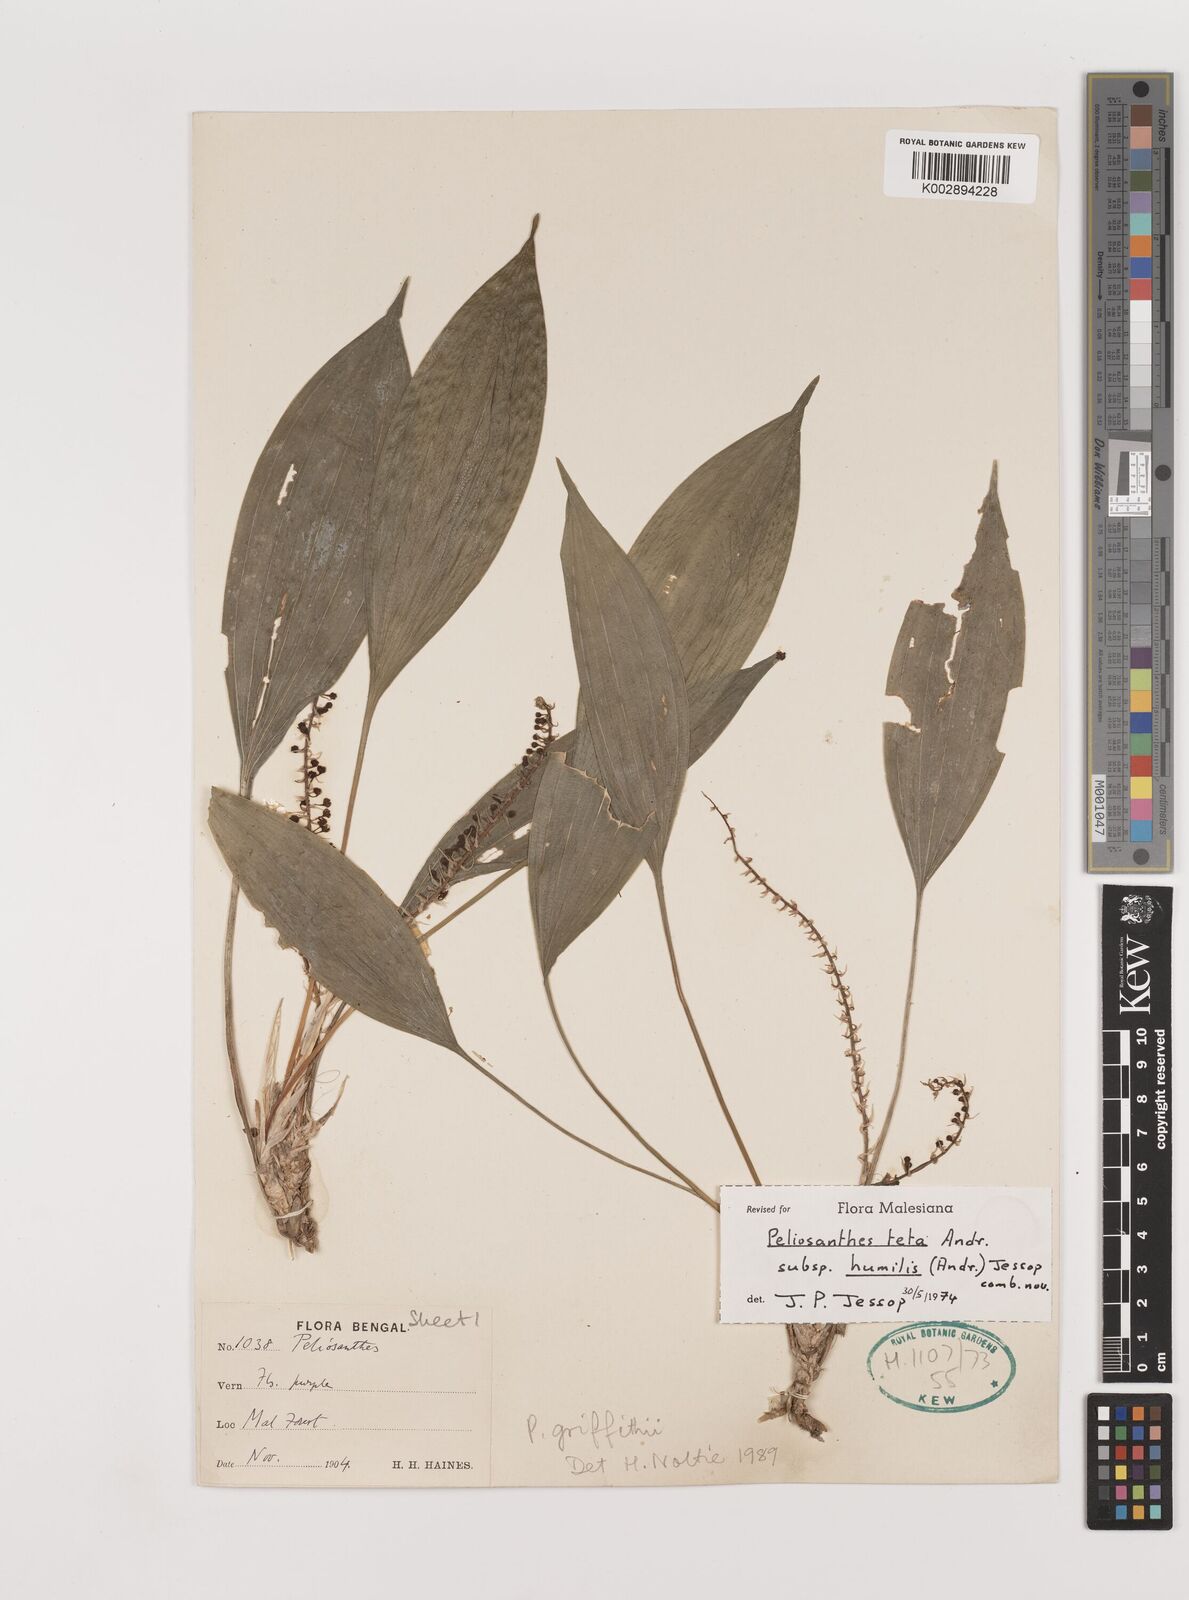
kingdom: Plantae
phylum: Tracheophyta
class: Liliopsida
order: Asparagales
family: Asparagaceae
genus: Peliosanthes
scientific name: Peliosanthes teta
